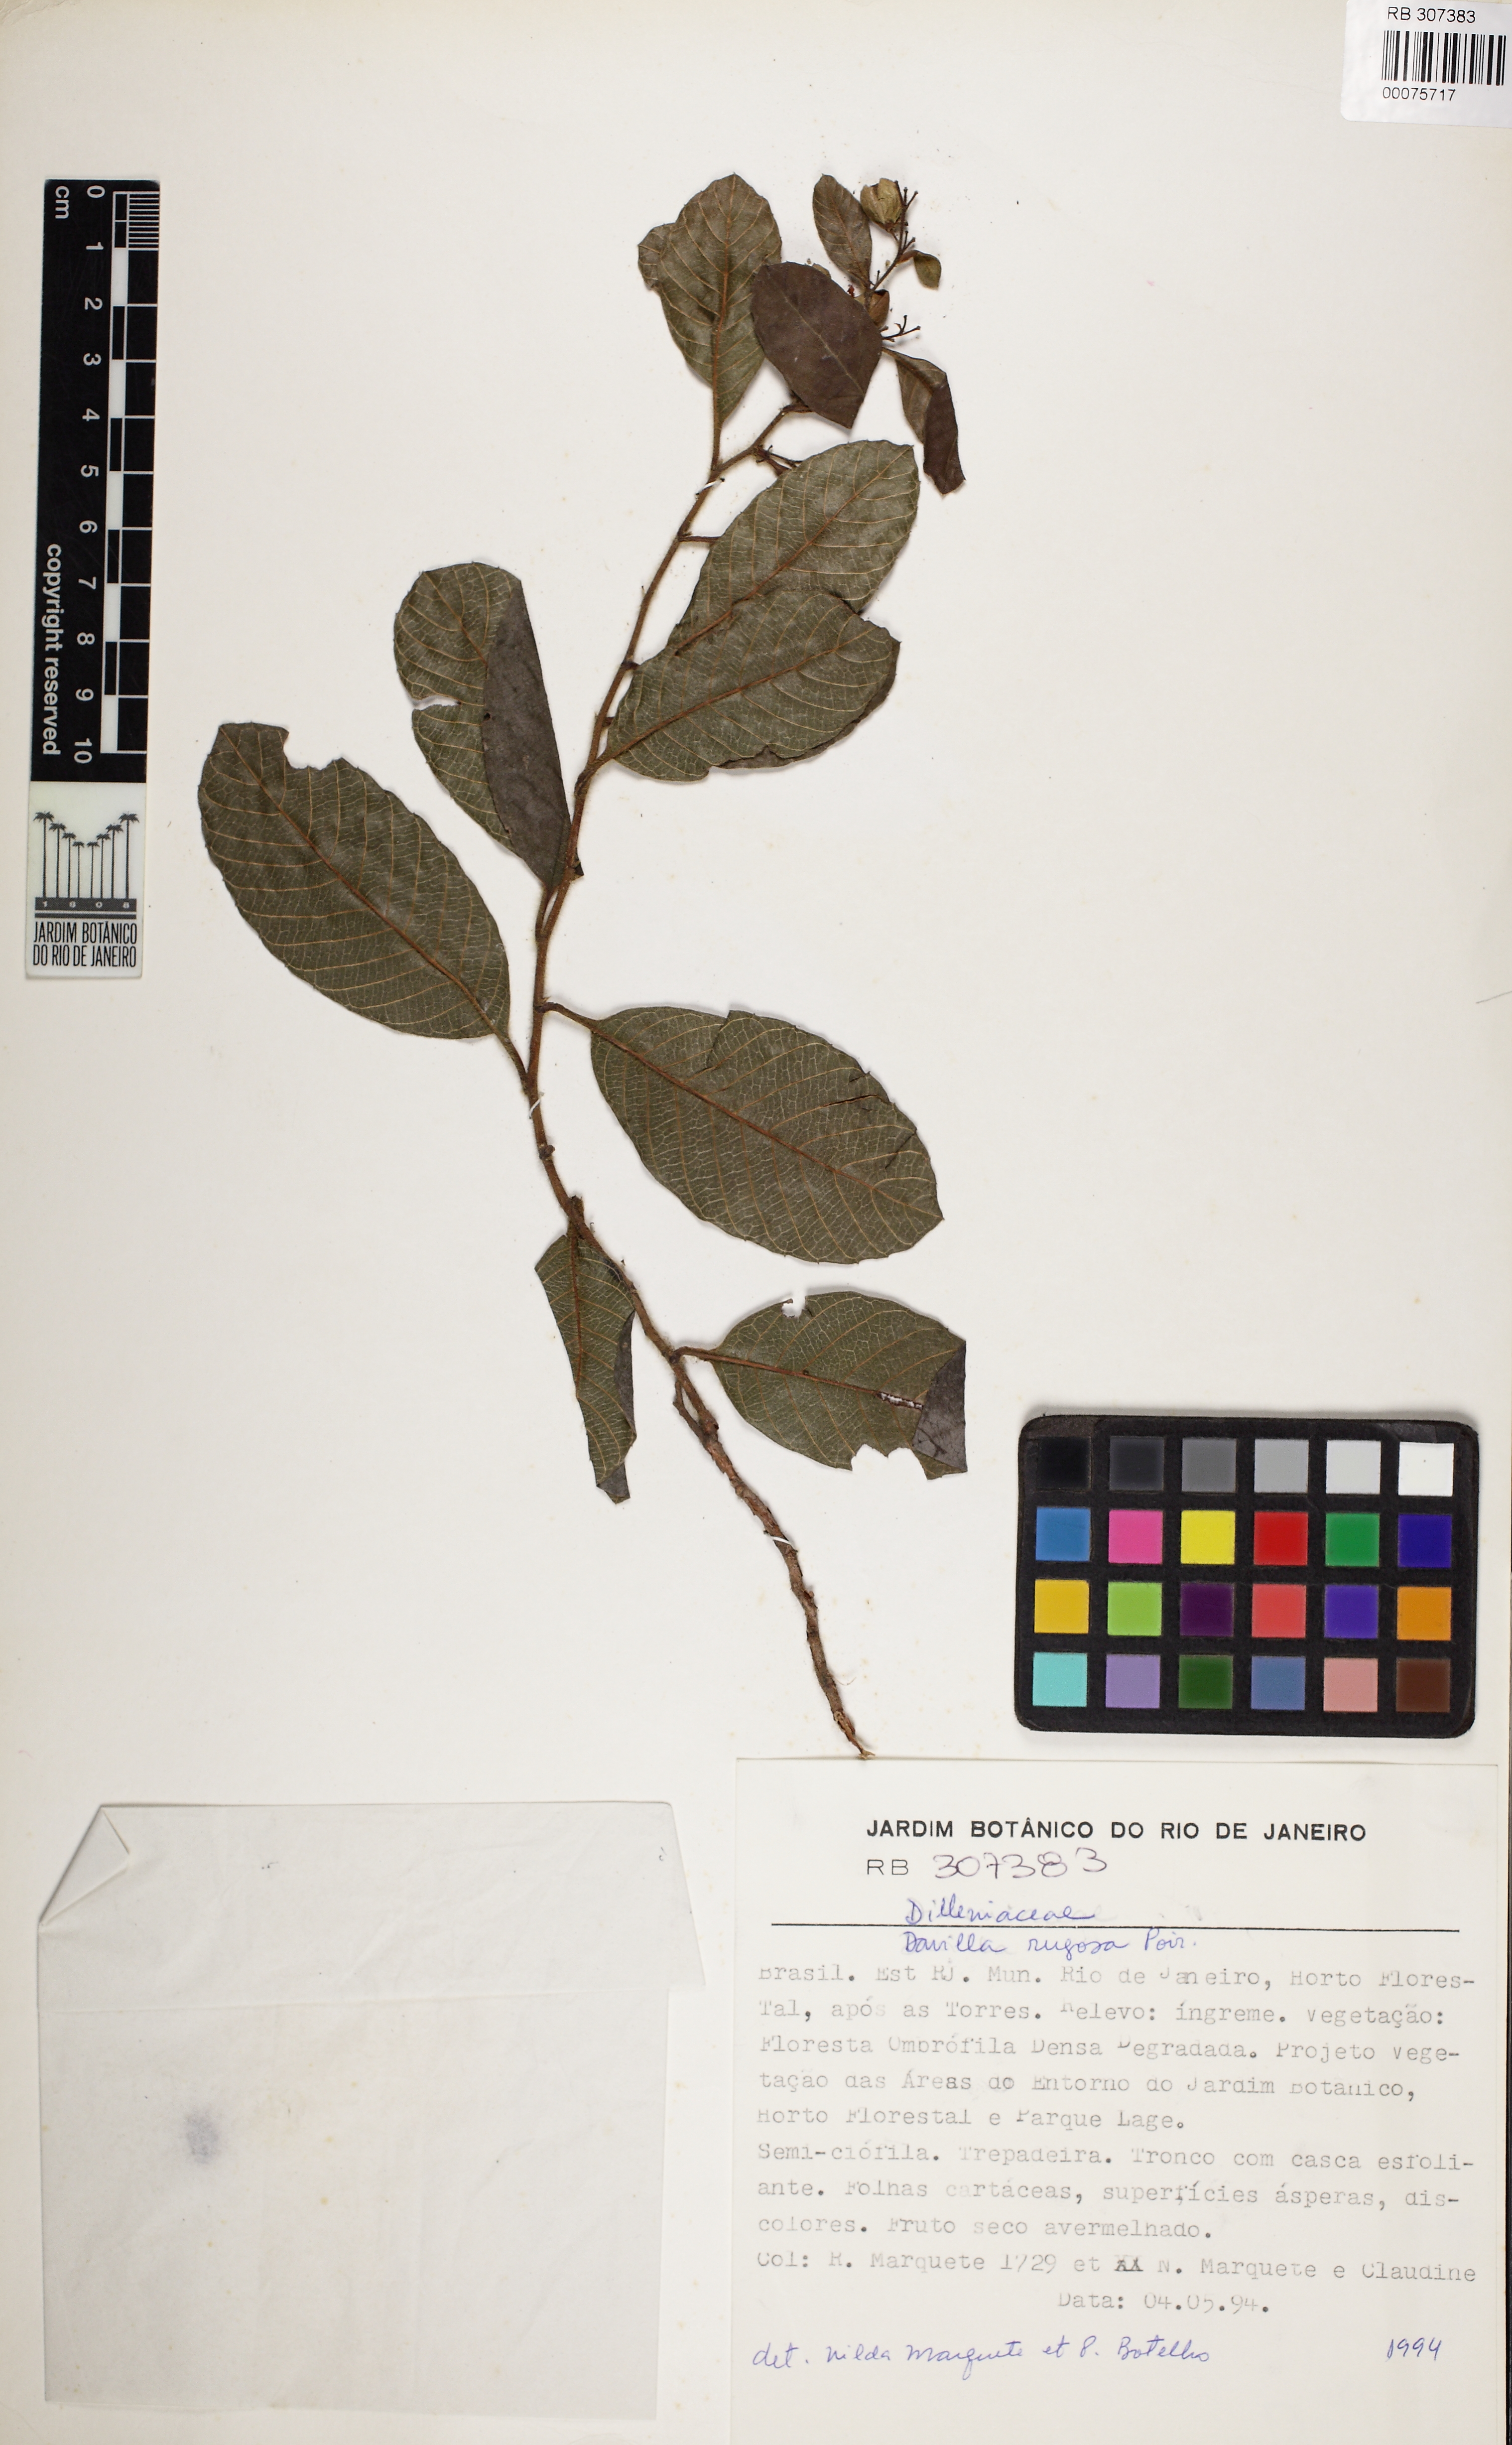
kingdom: Plantae
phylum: Tracheophyta
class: Magnoliopsida
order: Dilleniales
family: Dilleniaceae
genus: Davilla
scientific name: Davilla rugosa
